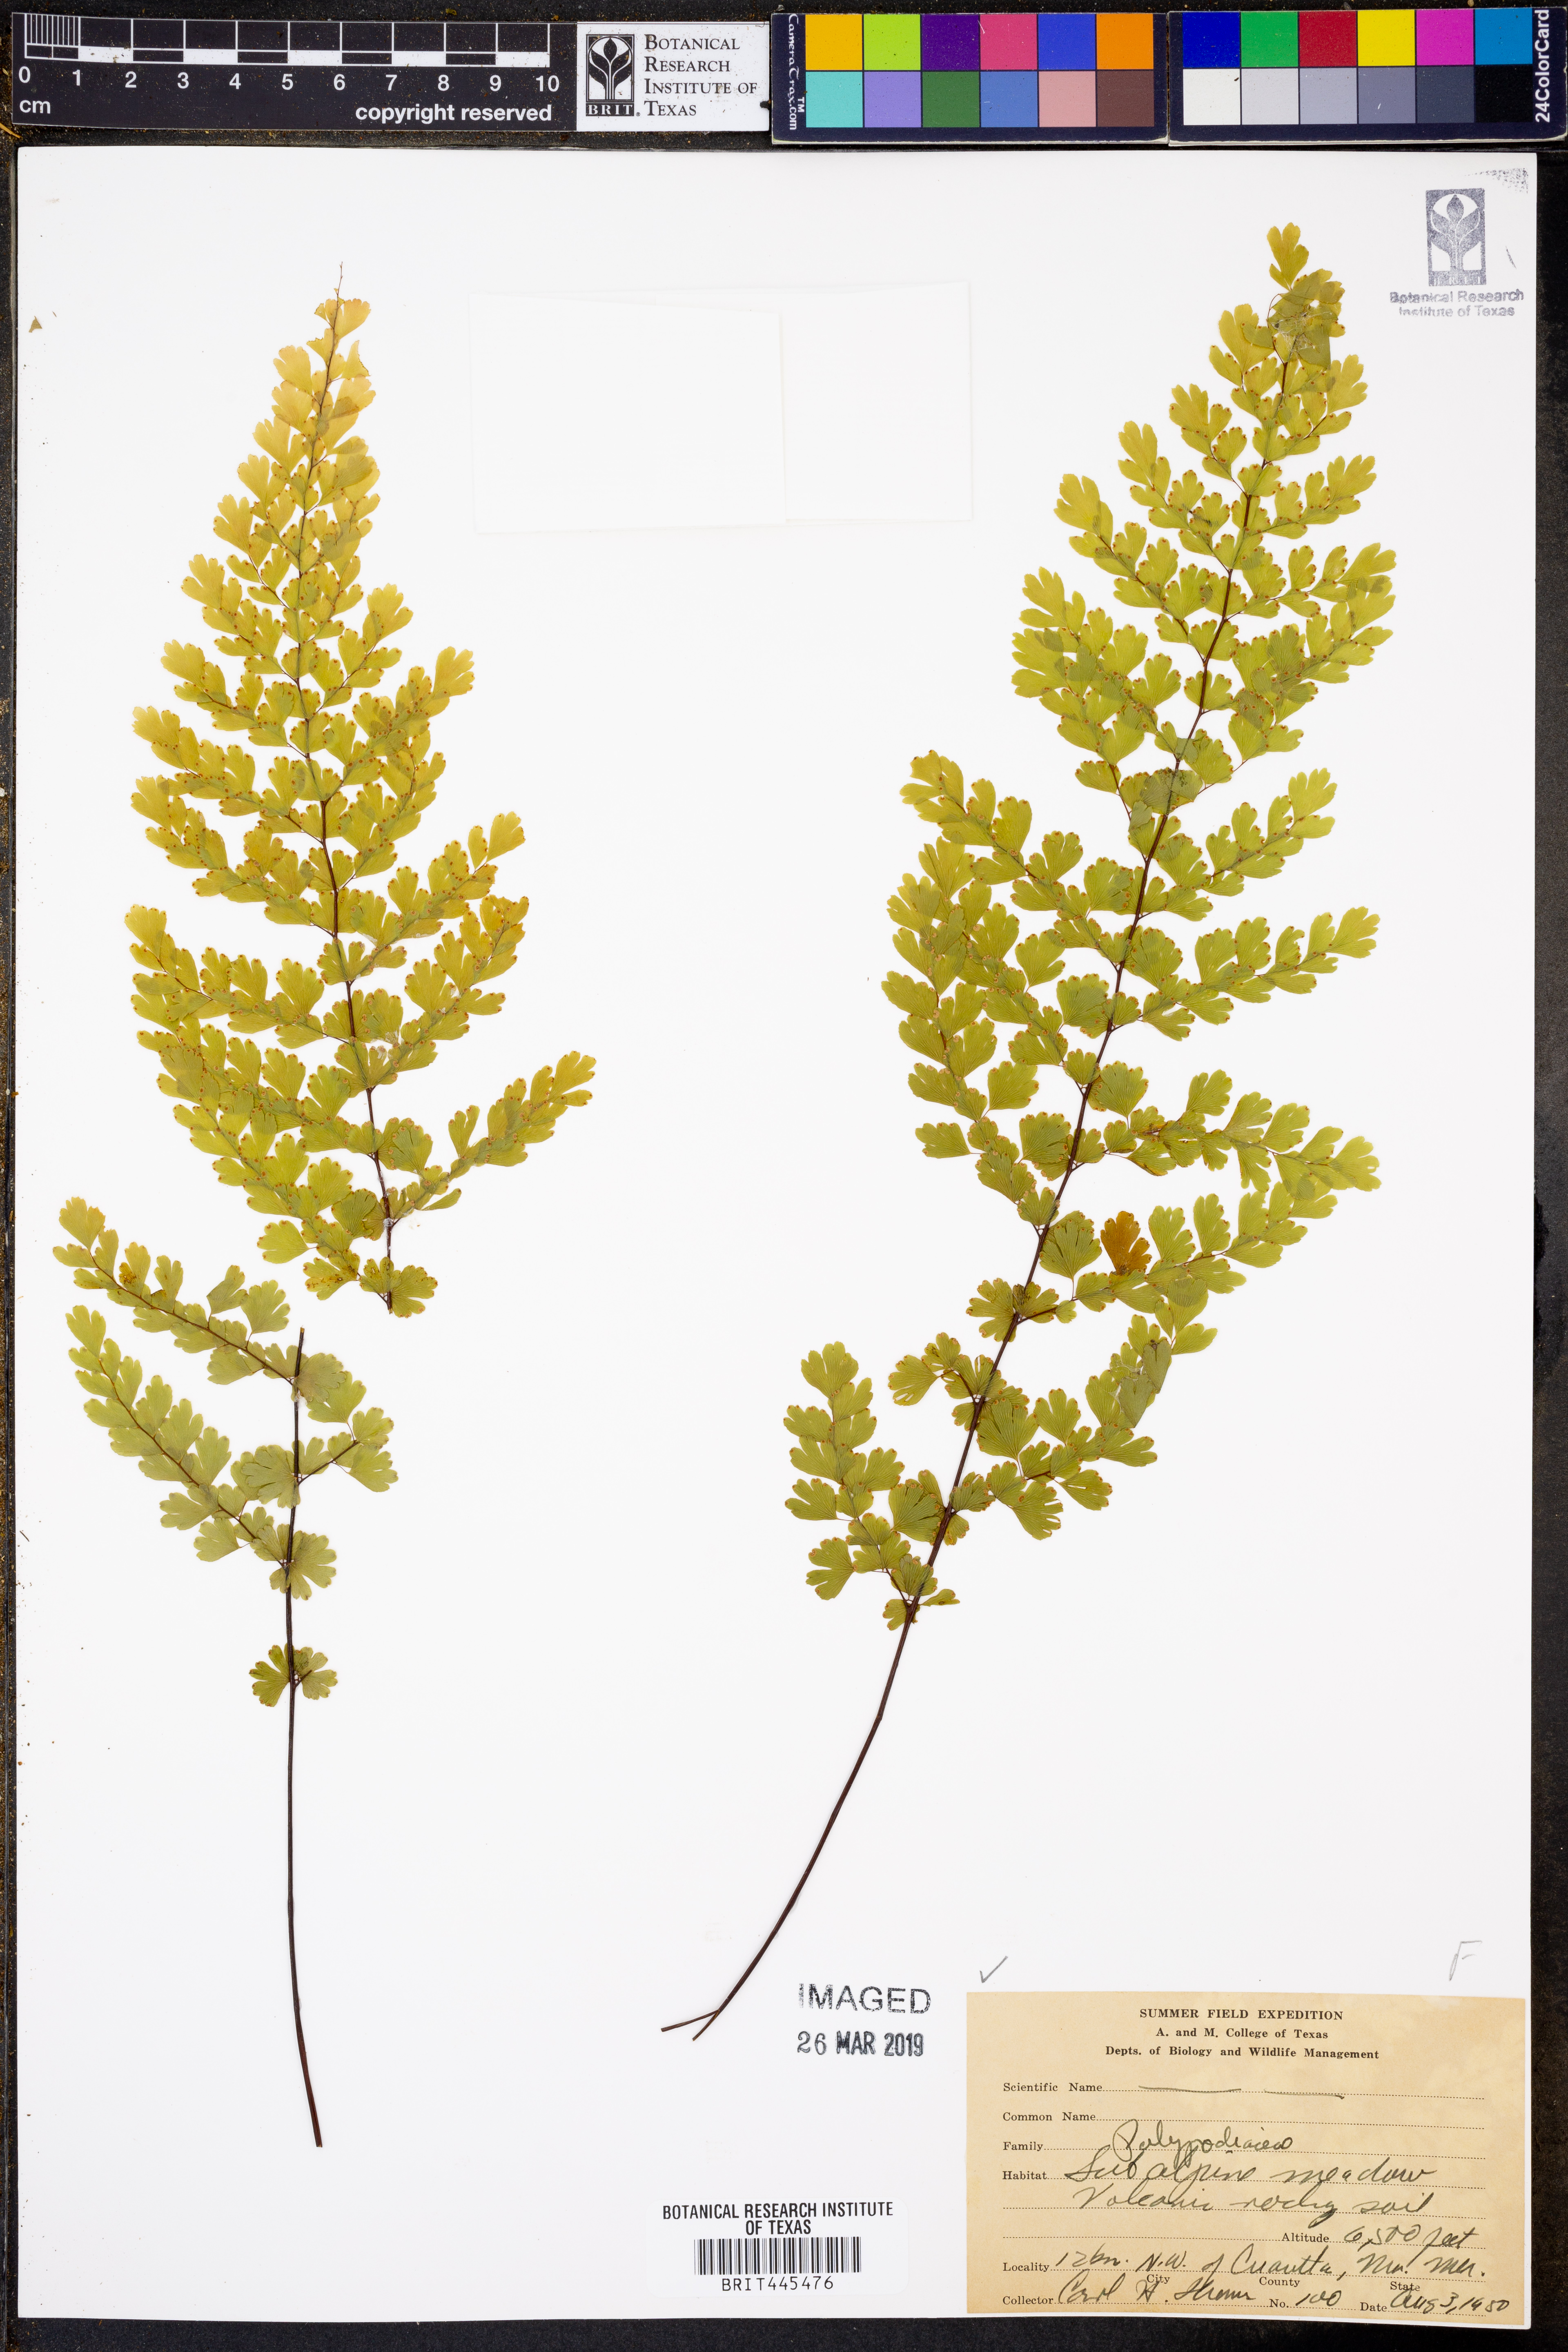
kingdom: Plantae
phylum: Tracheophyta
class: Polypodiopsida
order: Polypodiales
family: Polypodiaceae
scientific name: Polypodiaceae
